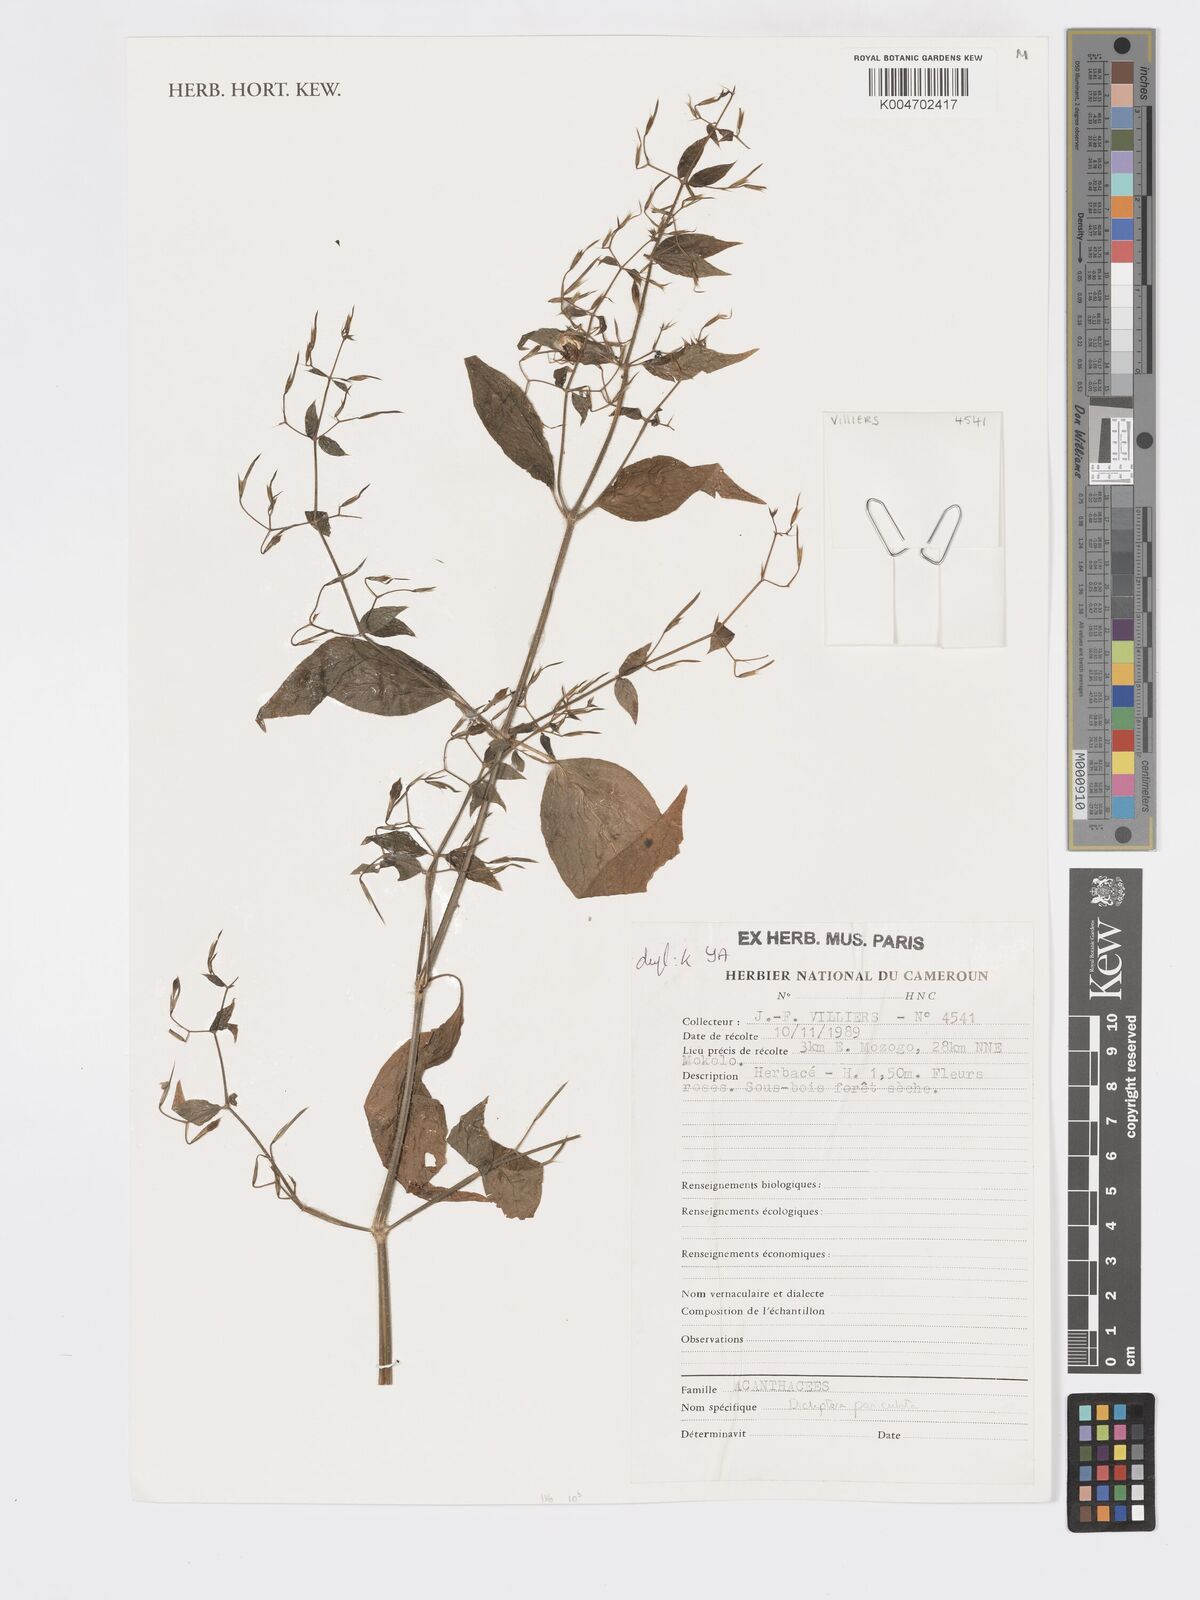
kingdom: Plantae
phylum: Tracheophyta
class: Magnoliopsida
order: Lamiales
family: Acanthaceae
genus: Dicliptera
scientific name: Dicliptera paniculata
